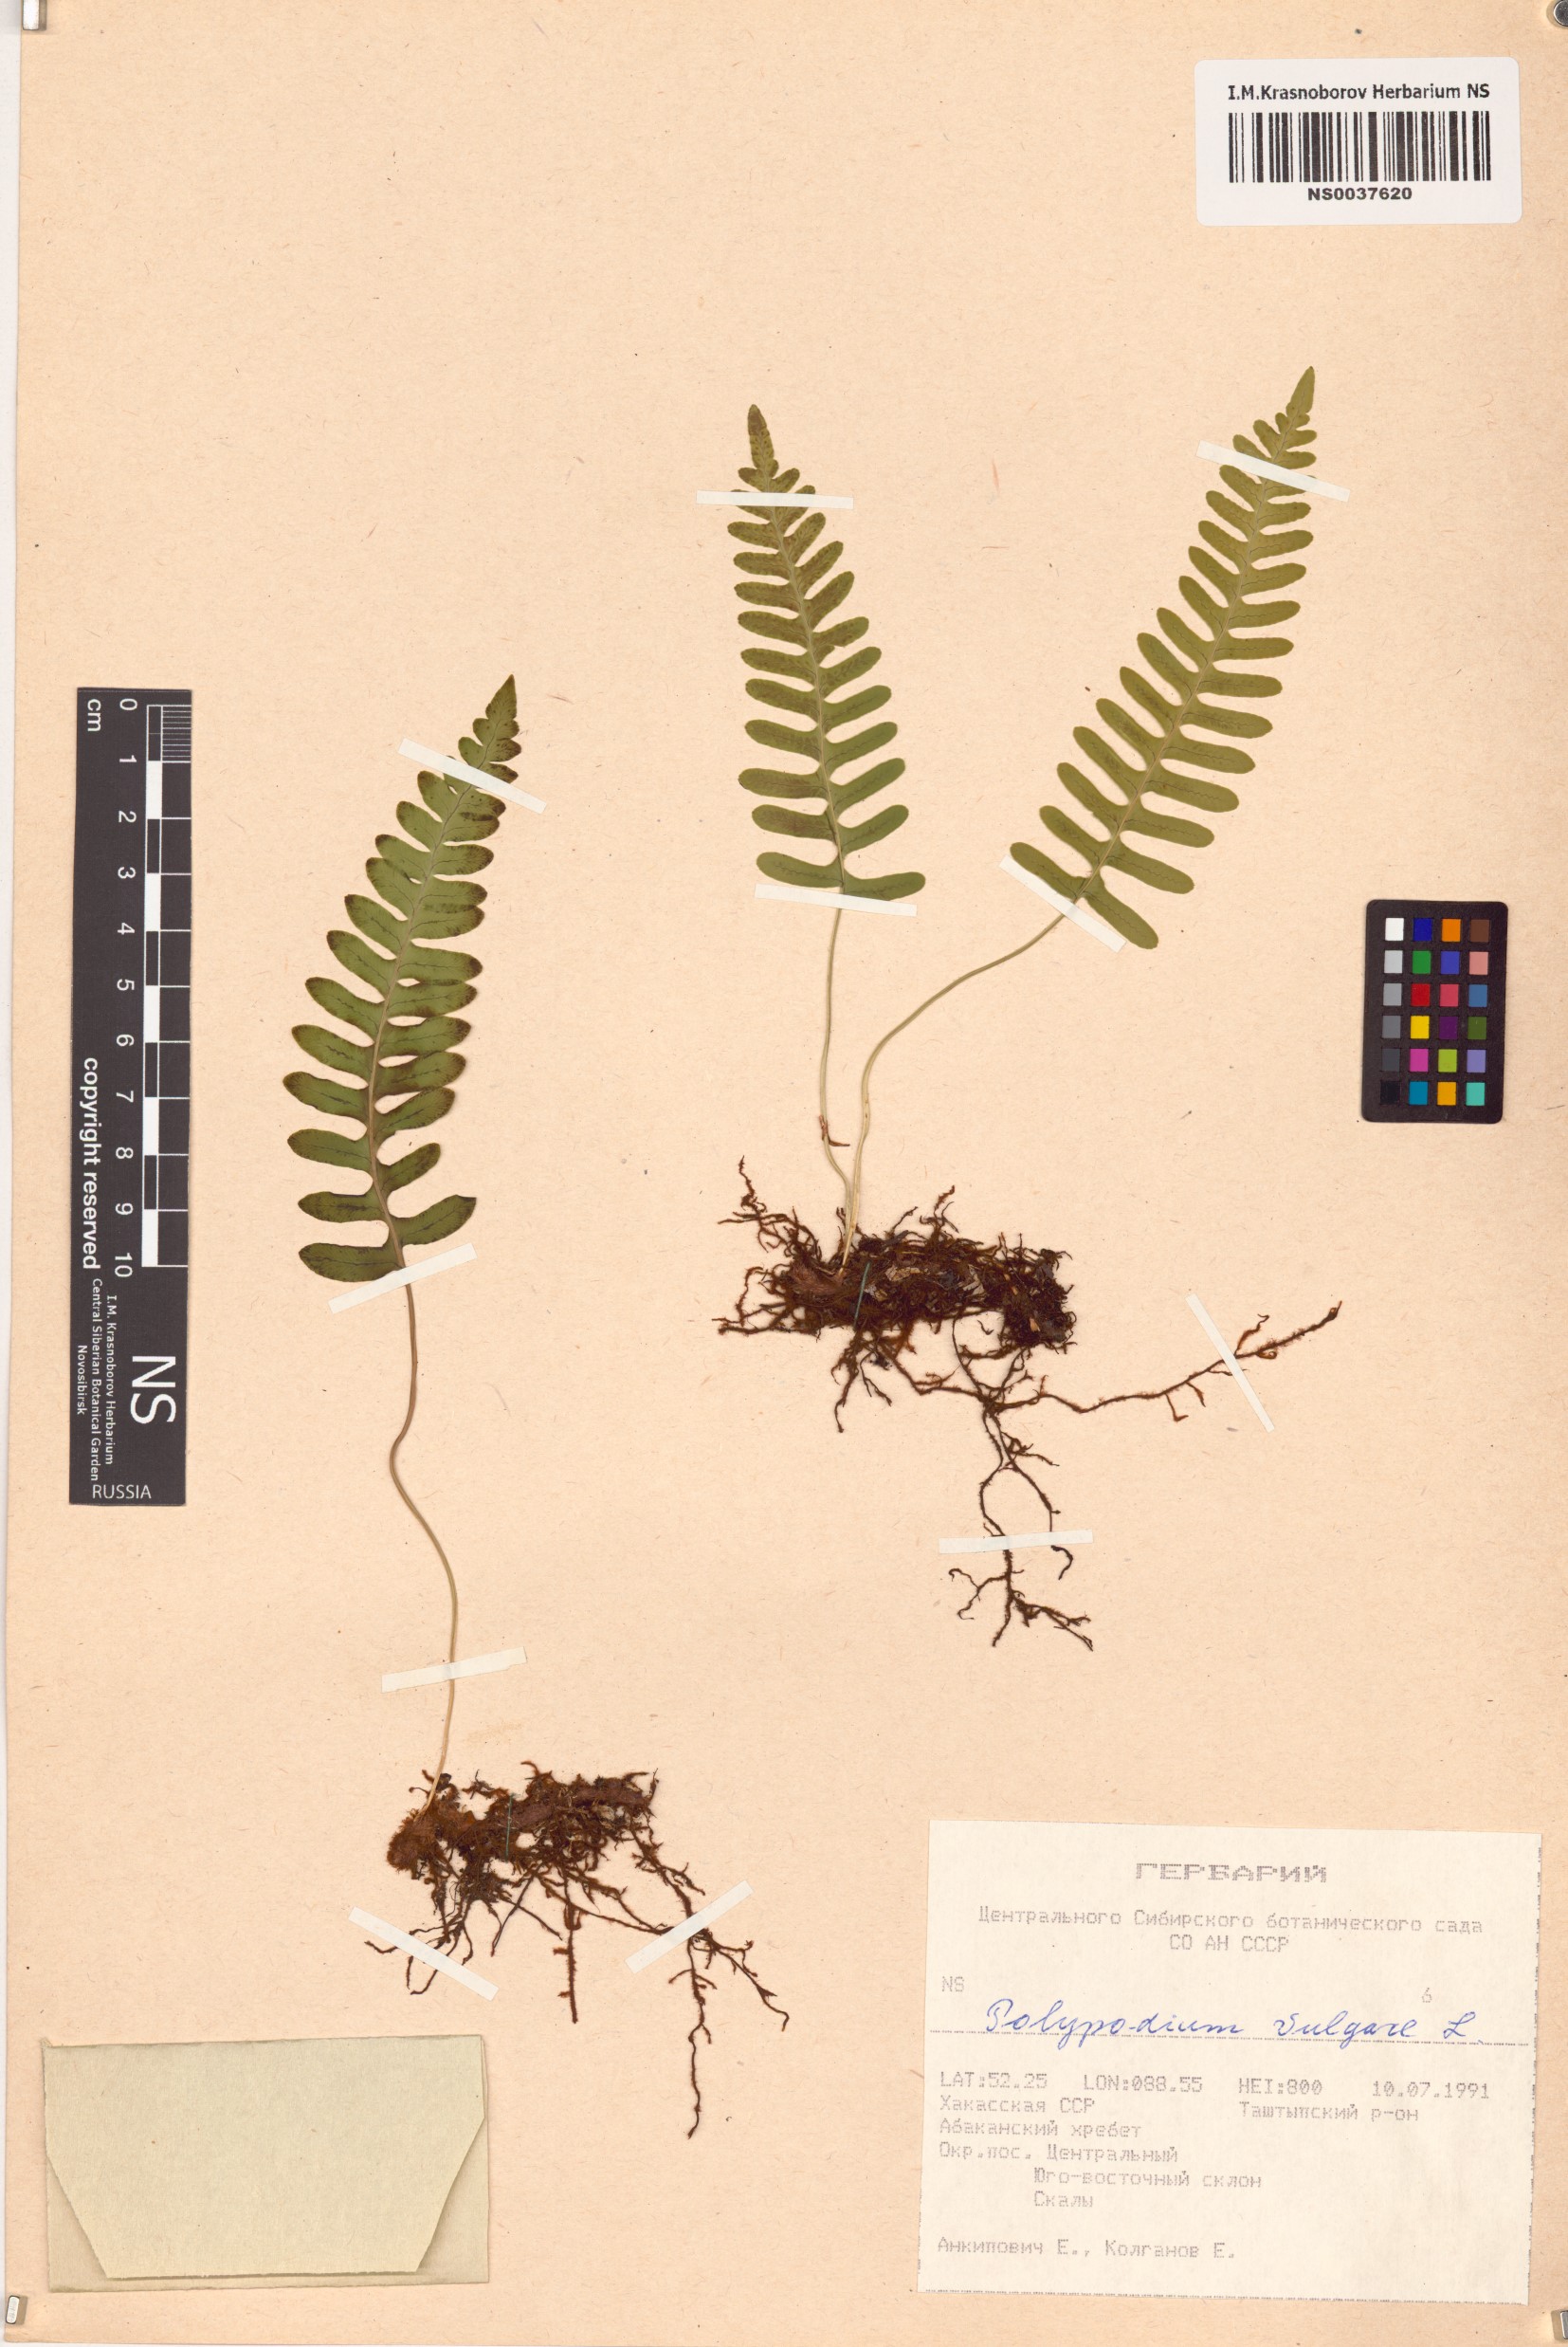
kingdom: Plantae
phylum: Tracheophyta
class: Polypodiopsida
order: Polypodiales
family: Polypodiaceae
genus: Polypodium
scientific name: Polypodium vulgare
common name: Common polypody
